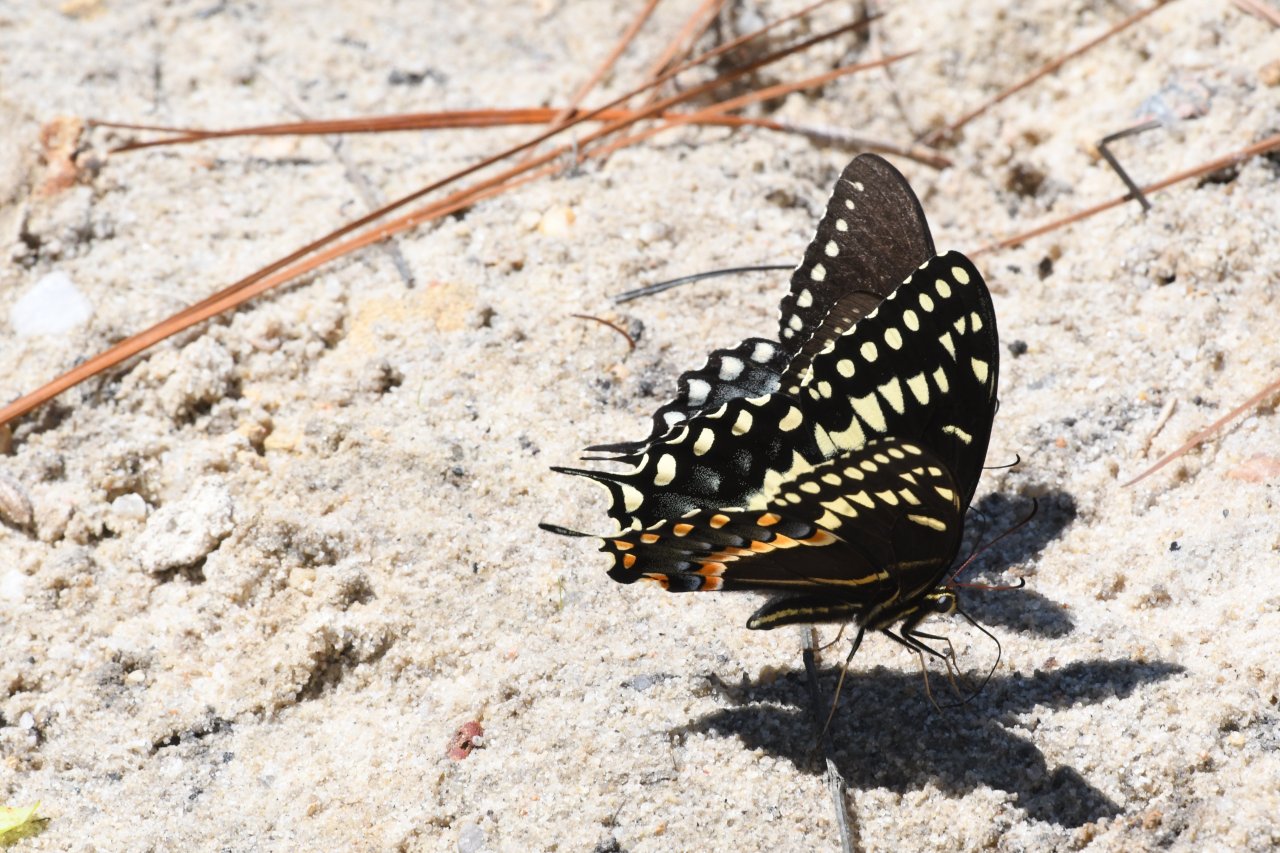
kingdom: Animalia
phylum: Arthropoda
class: Insecta
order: Lepidoptera
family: Papilionidae
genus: Pterourus
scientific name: Pterourus palamedes
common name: Palamedes Swallowtail
